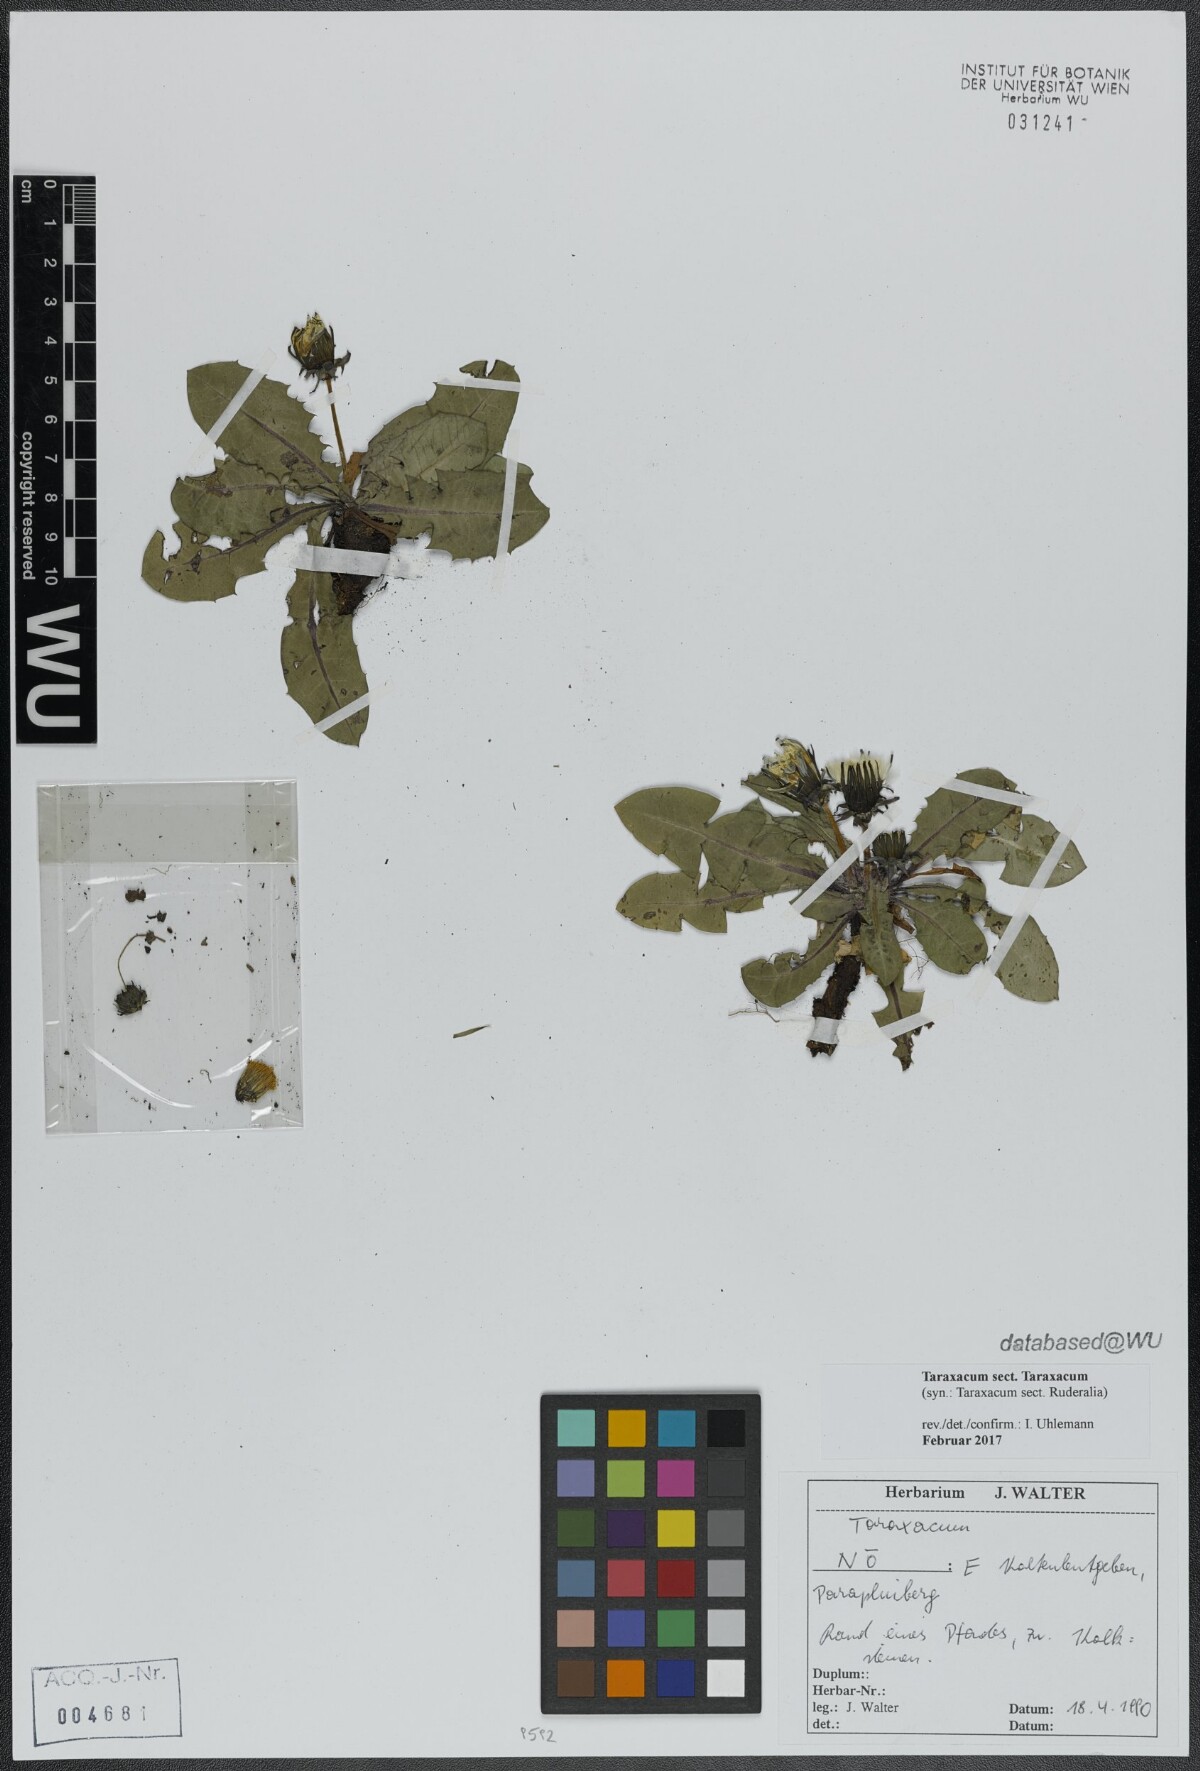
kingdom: Plantae
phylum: Tracheophyta
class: Magnoliopsida
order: Asterales
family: Asteraceae
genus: Taraxacum
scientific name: Taraxacum
